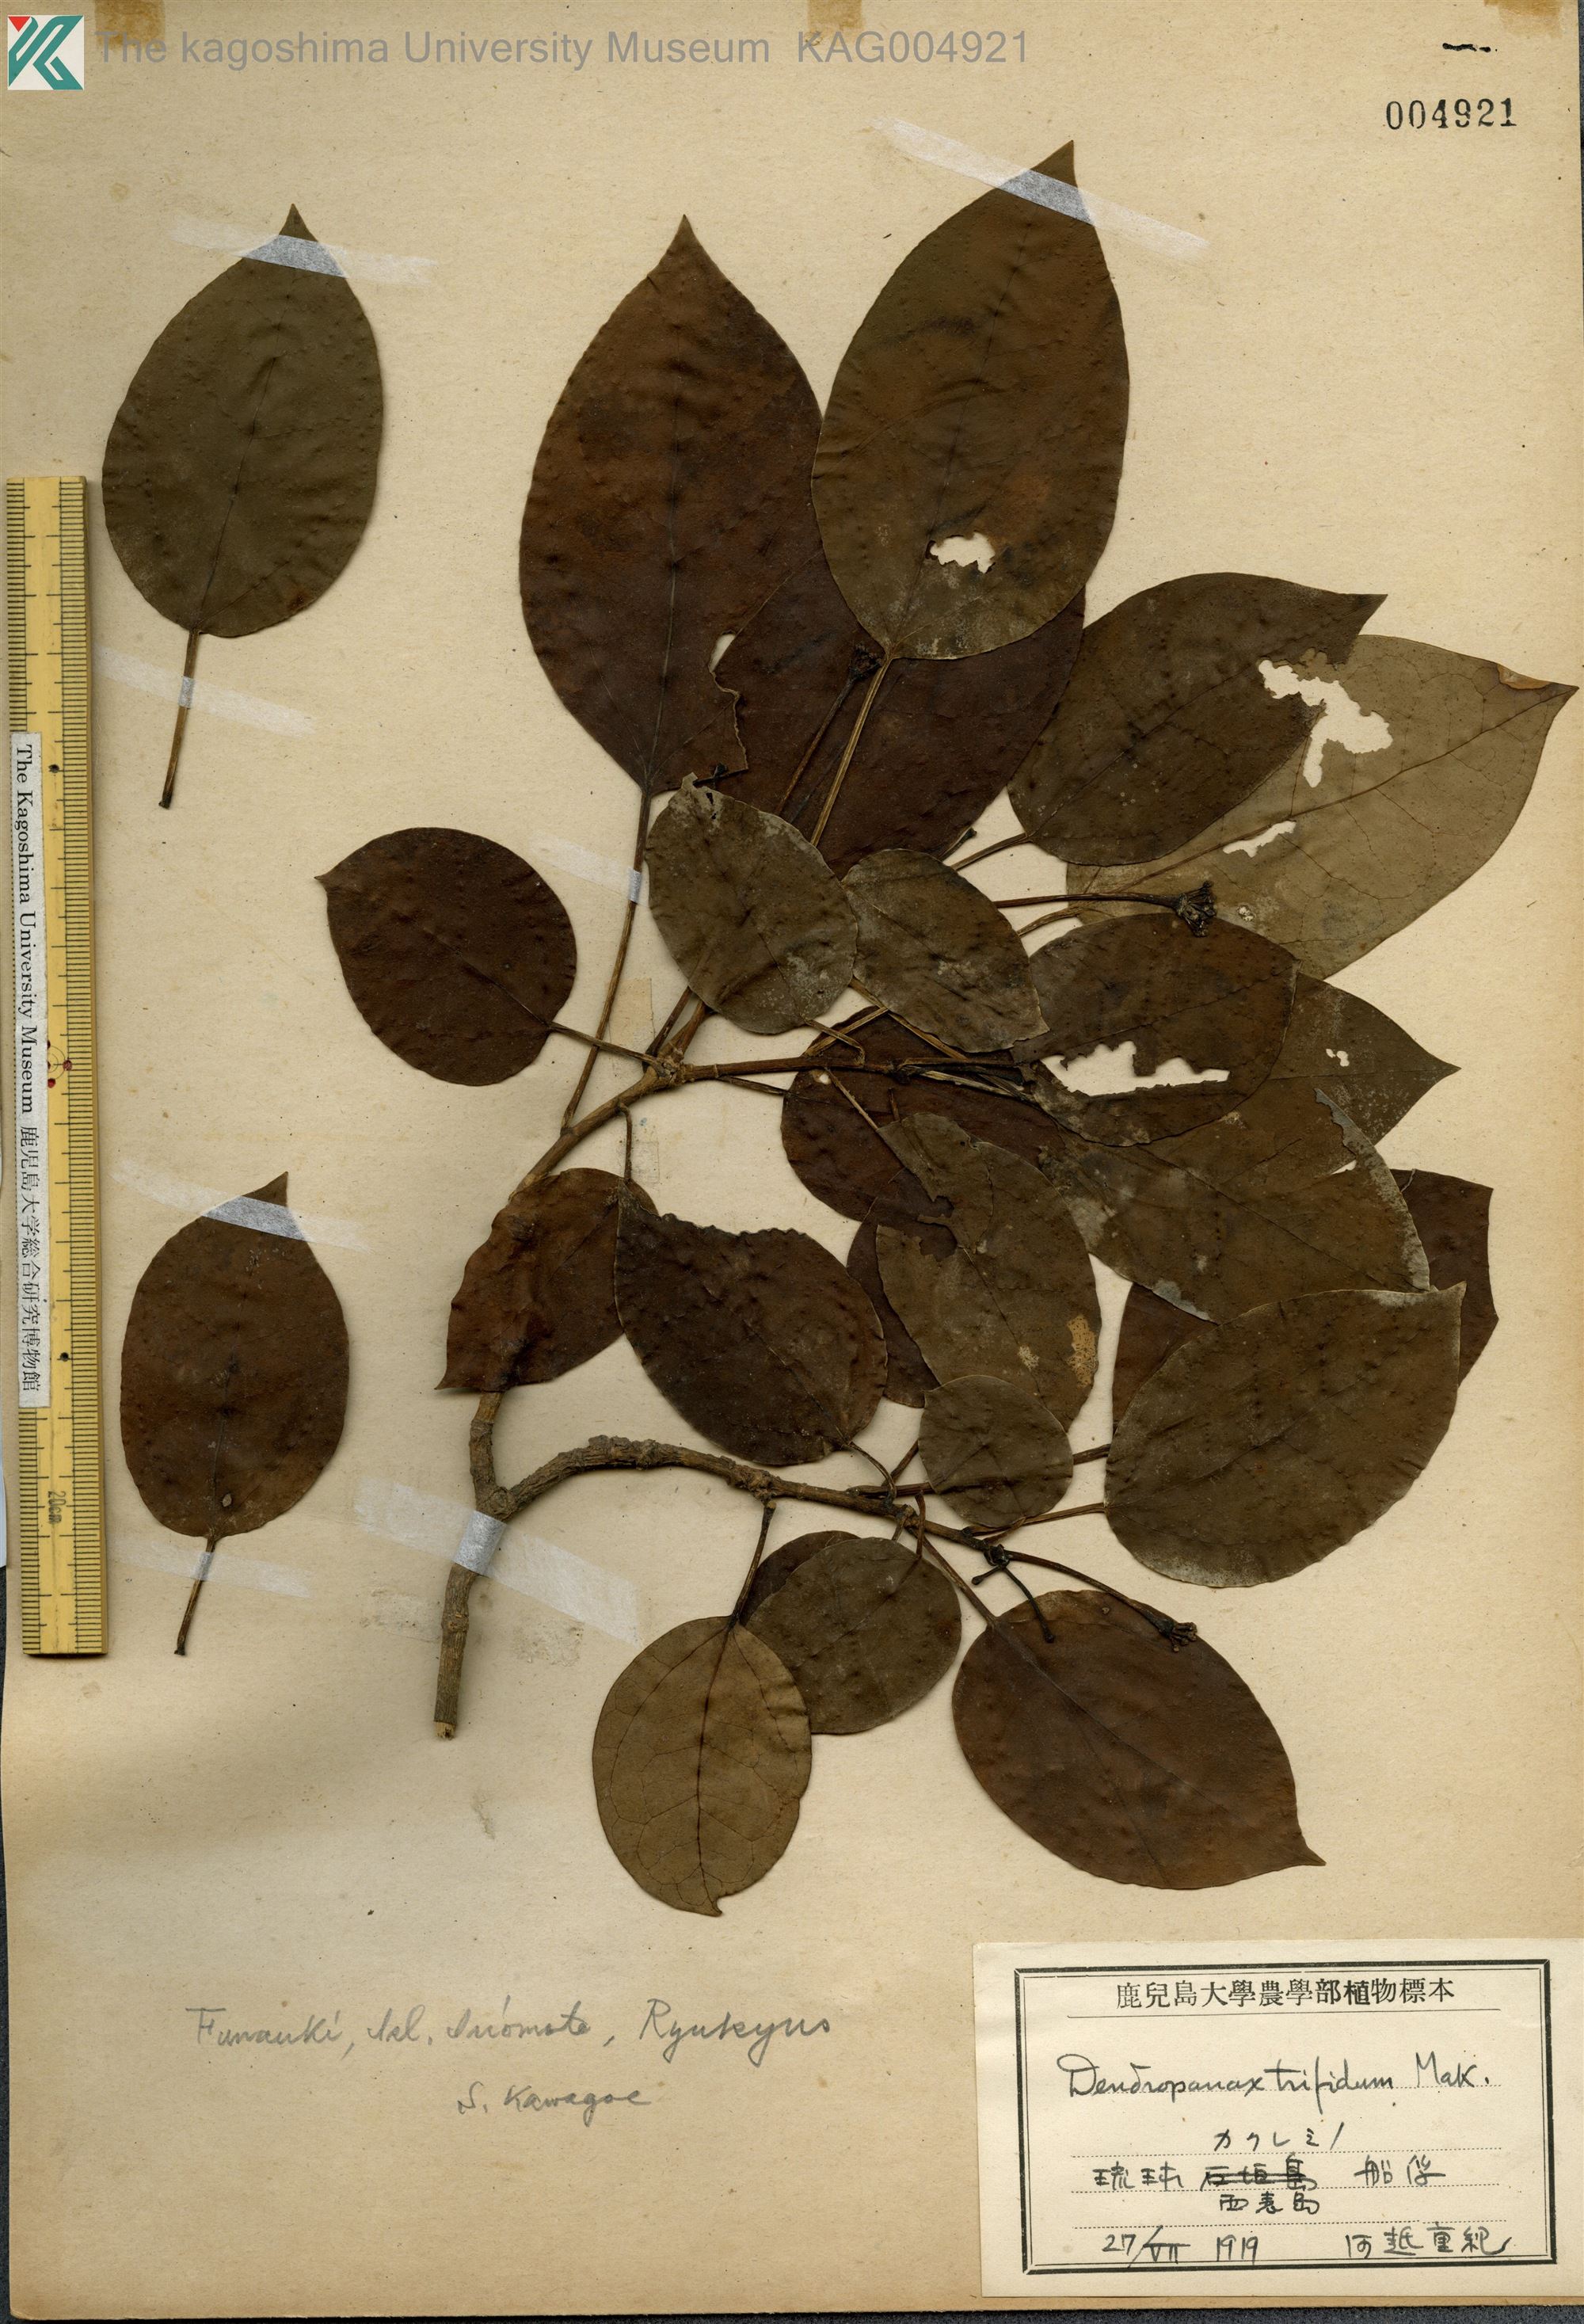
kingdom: Plantae
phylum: Tracheophyta
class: Magnoliopsida
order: Apiales
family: Araliaceae
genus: Dendropanax
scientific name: Dendropanax trifidus
